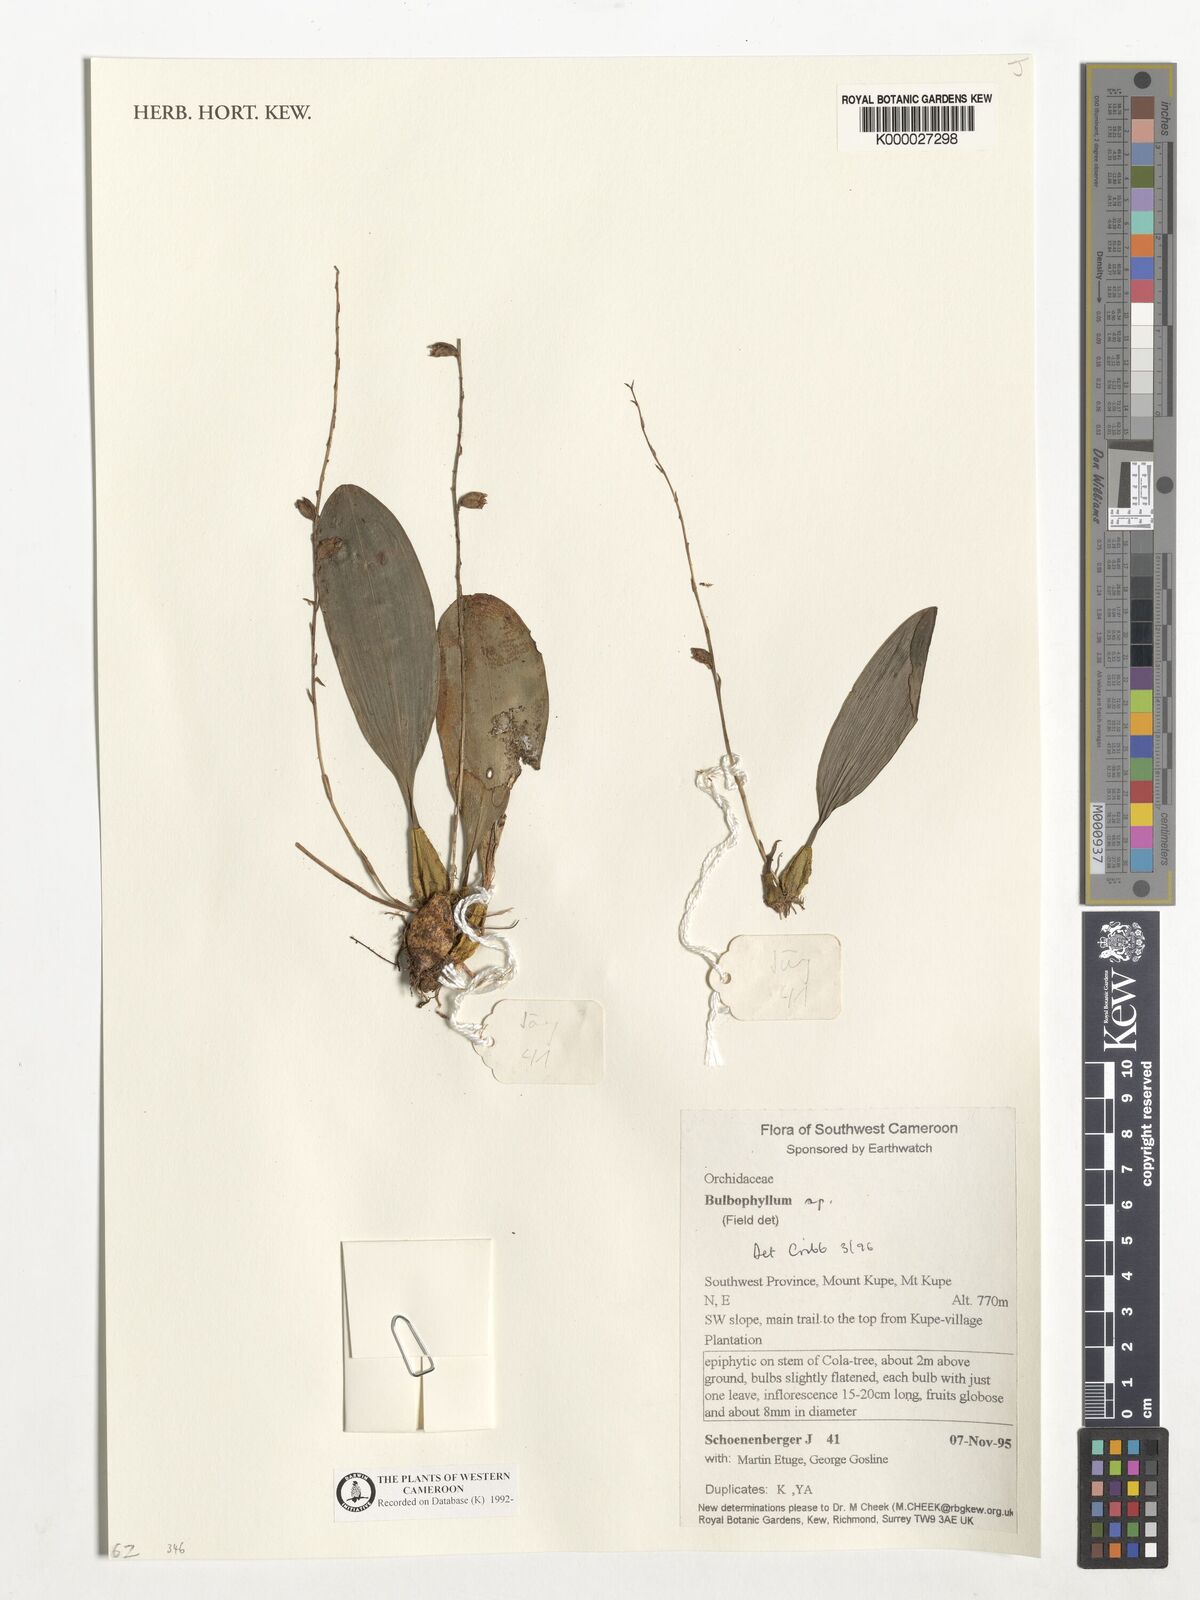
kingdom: Plantae
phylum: Tracheophyta
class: Liliopsida
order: Asparagales
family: Orchidaceae
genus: Bulbophyllum
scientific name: Bulbophyllum
